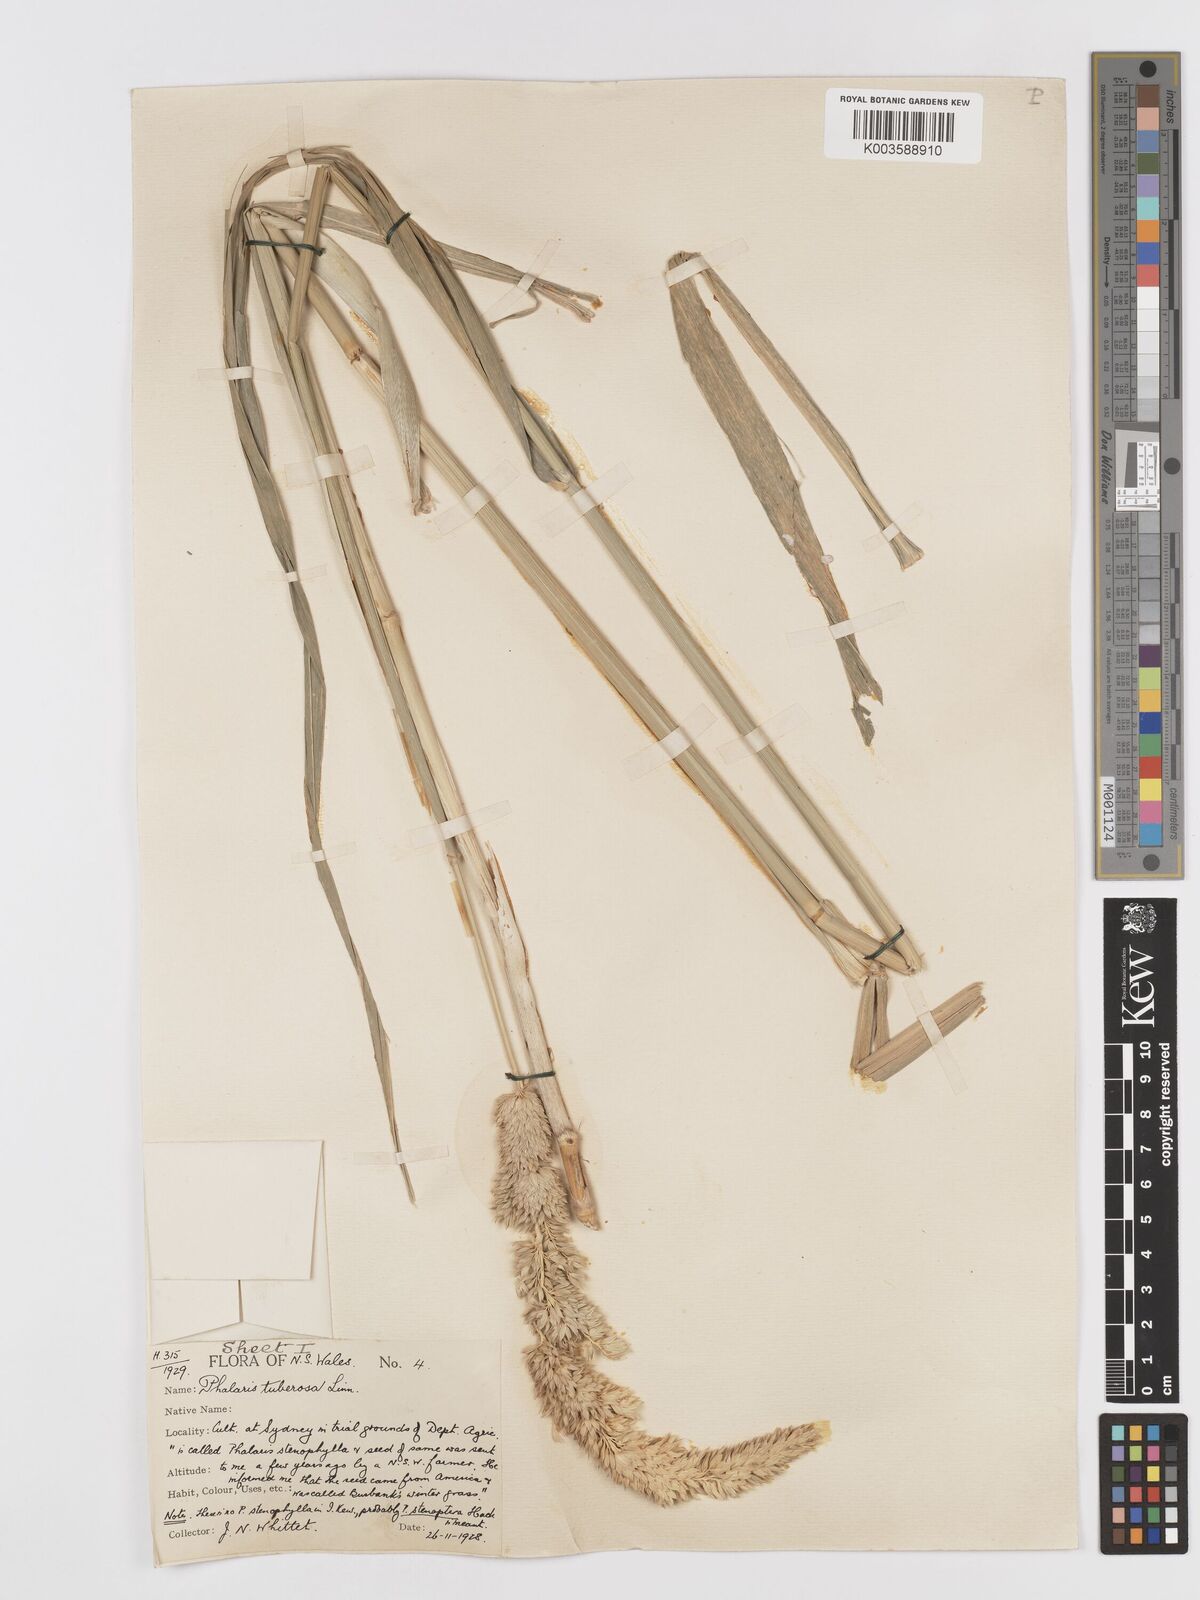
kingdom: Plantae
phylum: Tracheophyta
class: Liliopsida
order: Poales
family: Poaceae
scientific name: Poaceae
